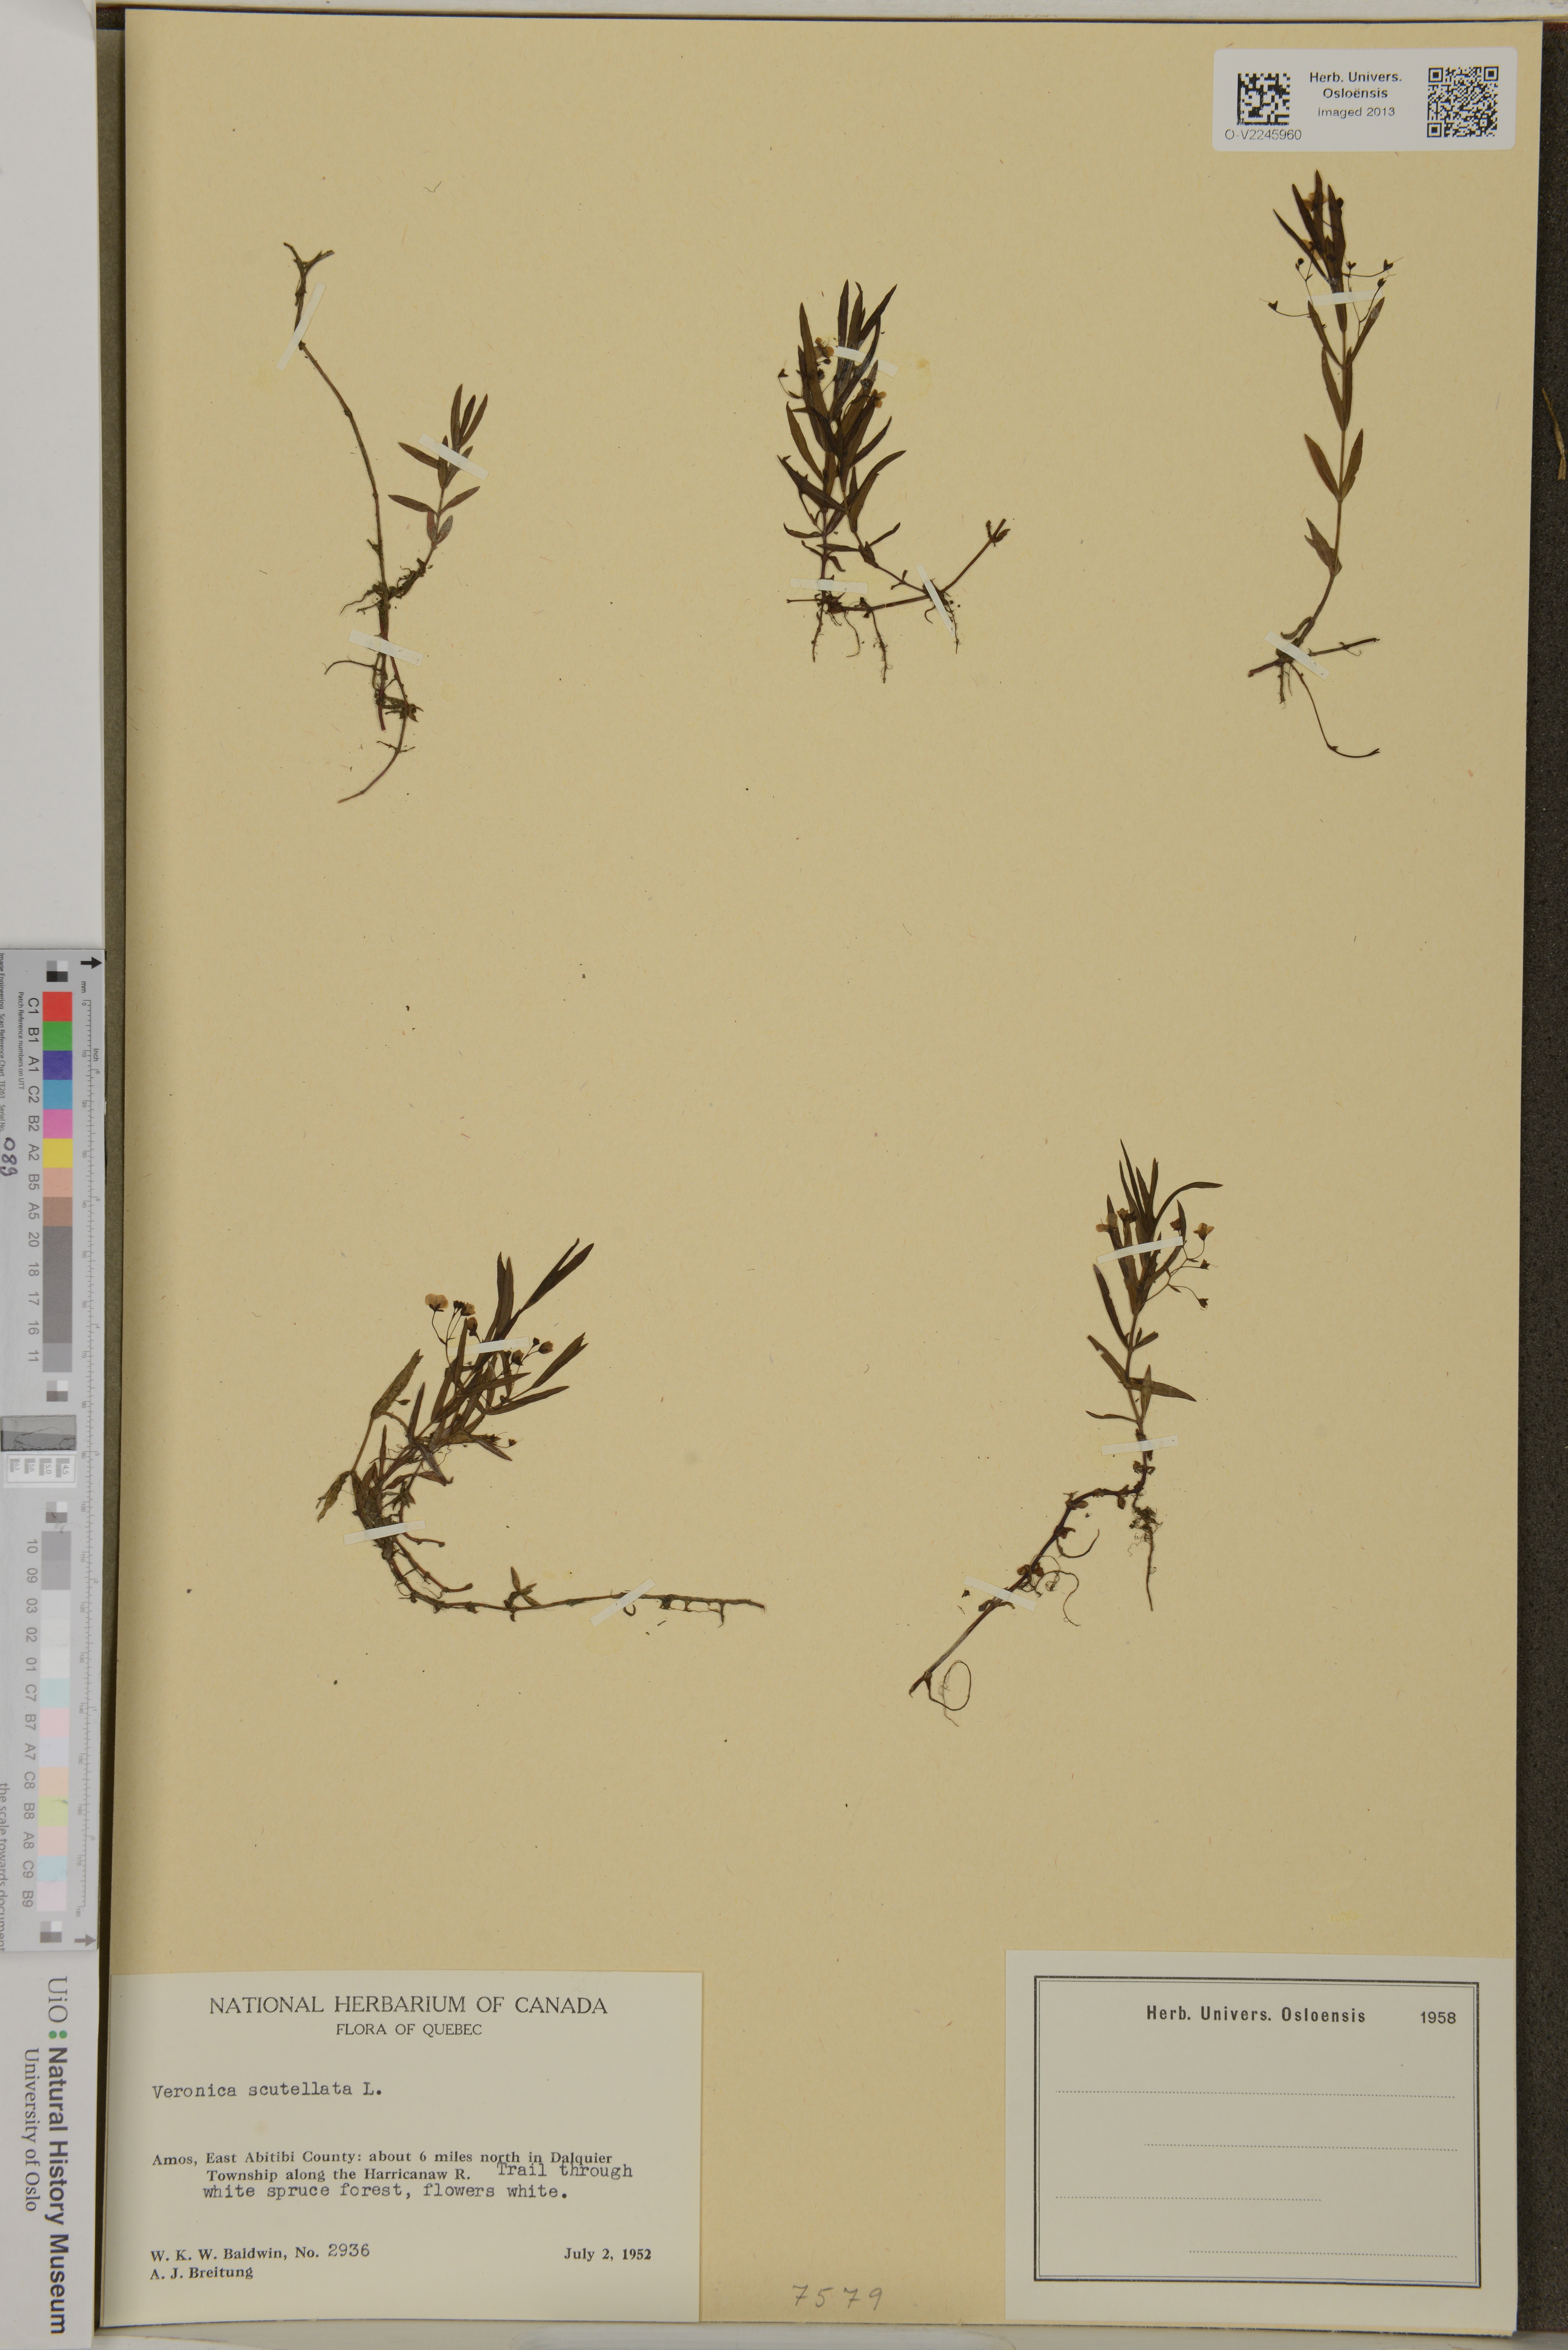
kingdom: Plantae
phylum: Tracheophyta
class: Magnoliopsida
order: Lamiales
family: Plantaginaceae
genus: Veronica
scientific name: Veronica scutellata
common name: Marsh speedwell
